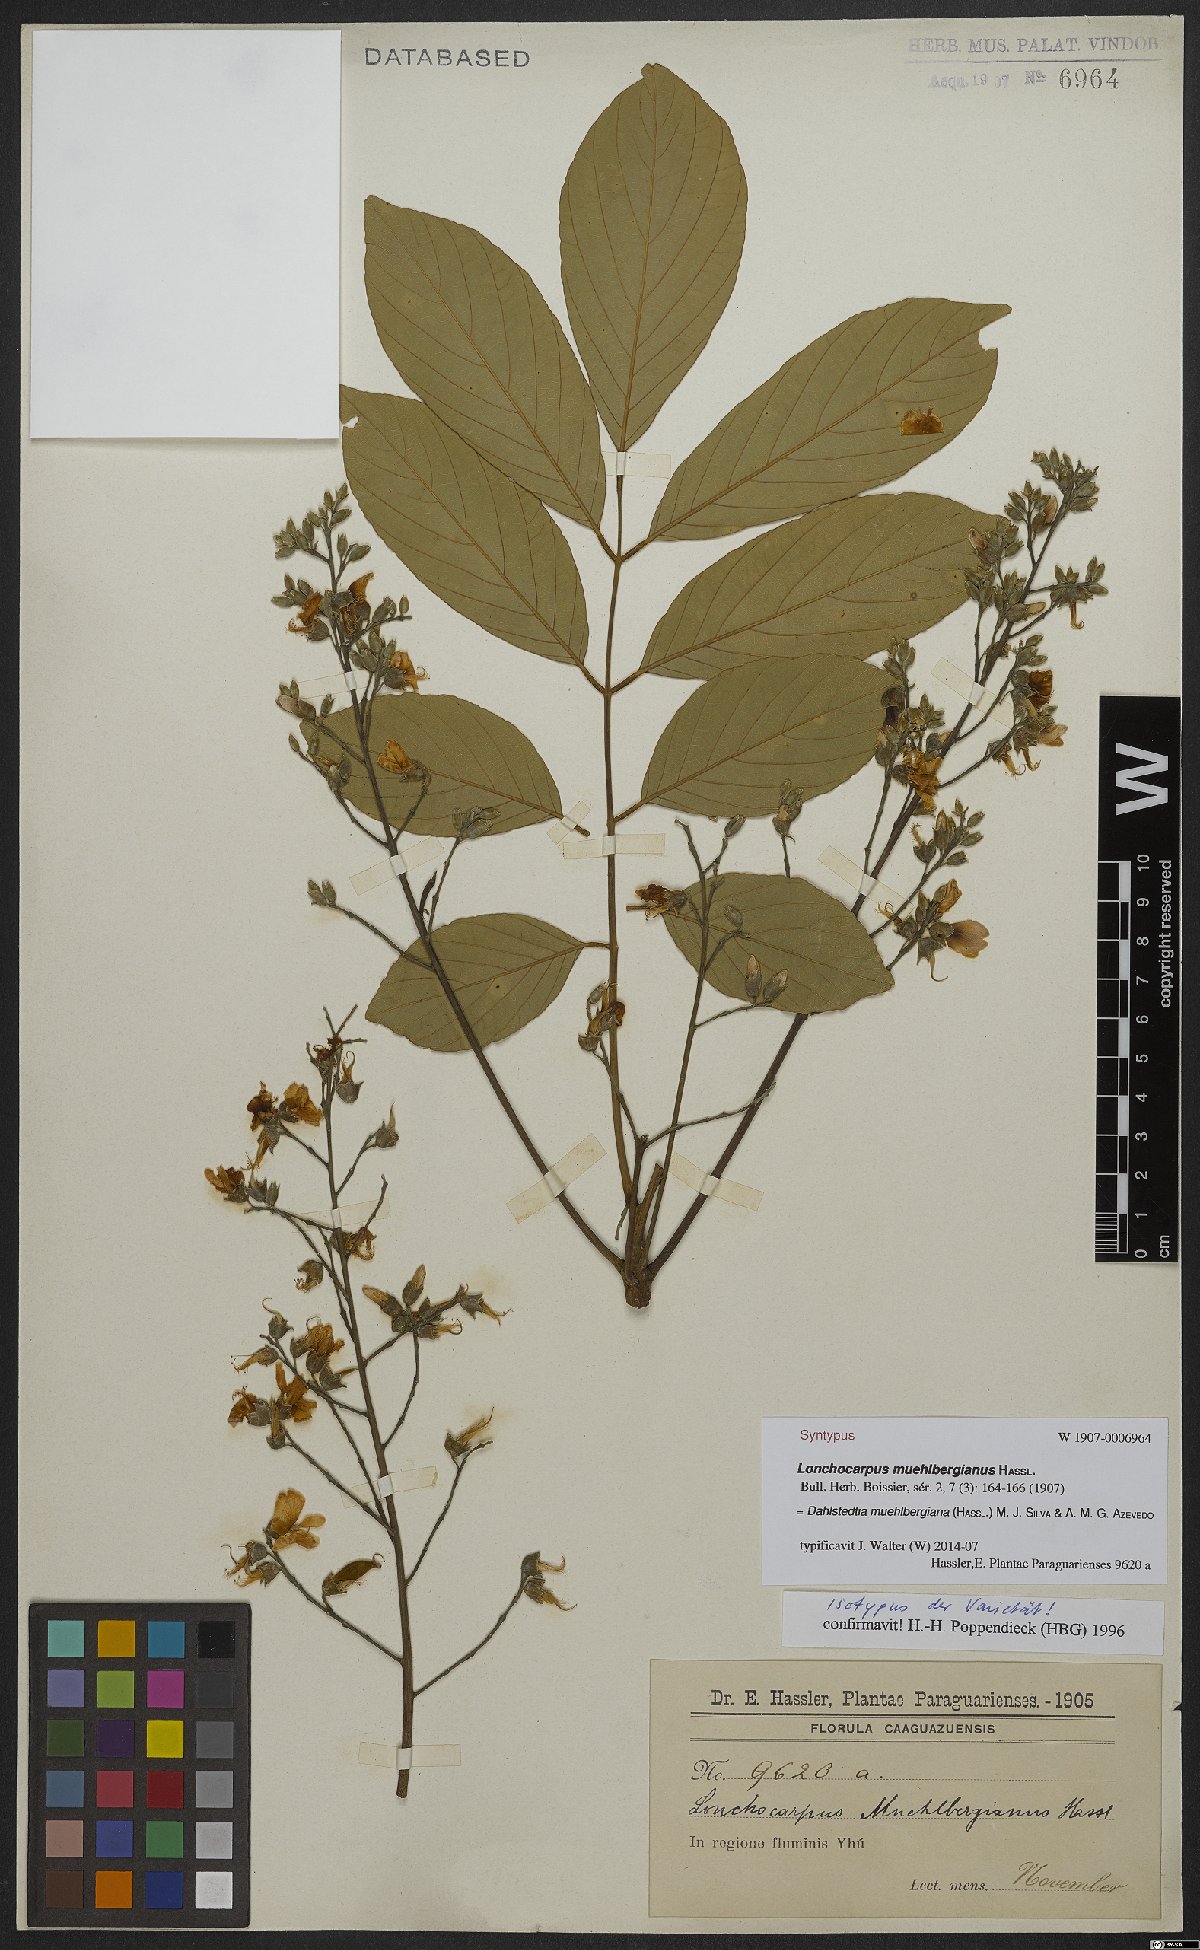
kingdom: Plantae
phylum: Tracheophyta
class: Magnoliopsida
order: Fabales
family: Fabaceae
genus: Dahlstedtia
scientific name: Dahlstedtia muehlbergiana
